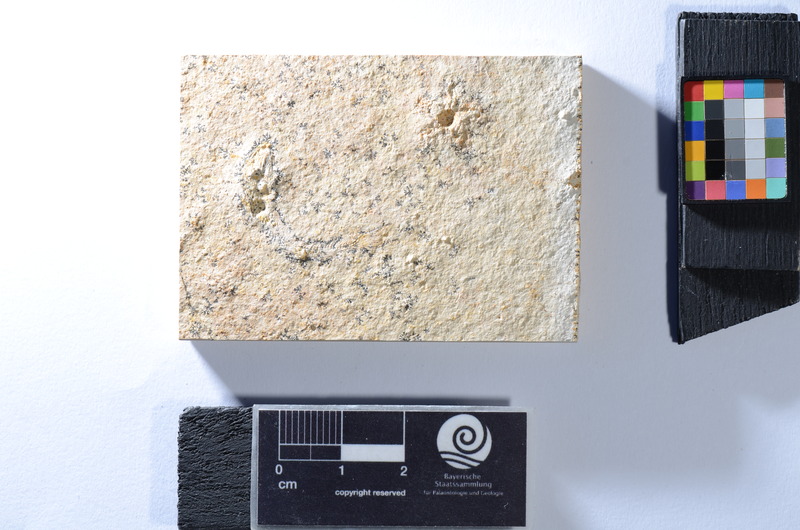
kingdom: Animalia
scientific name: Animalia
